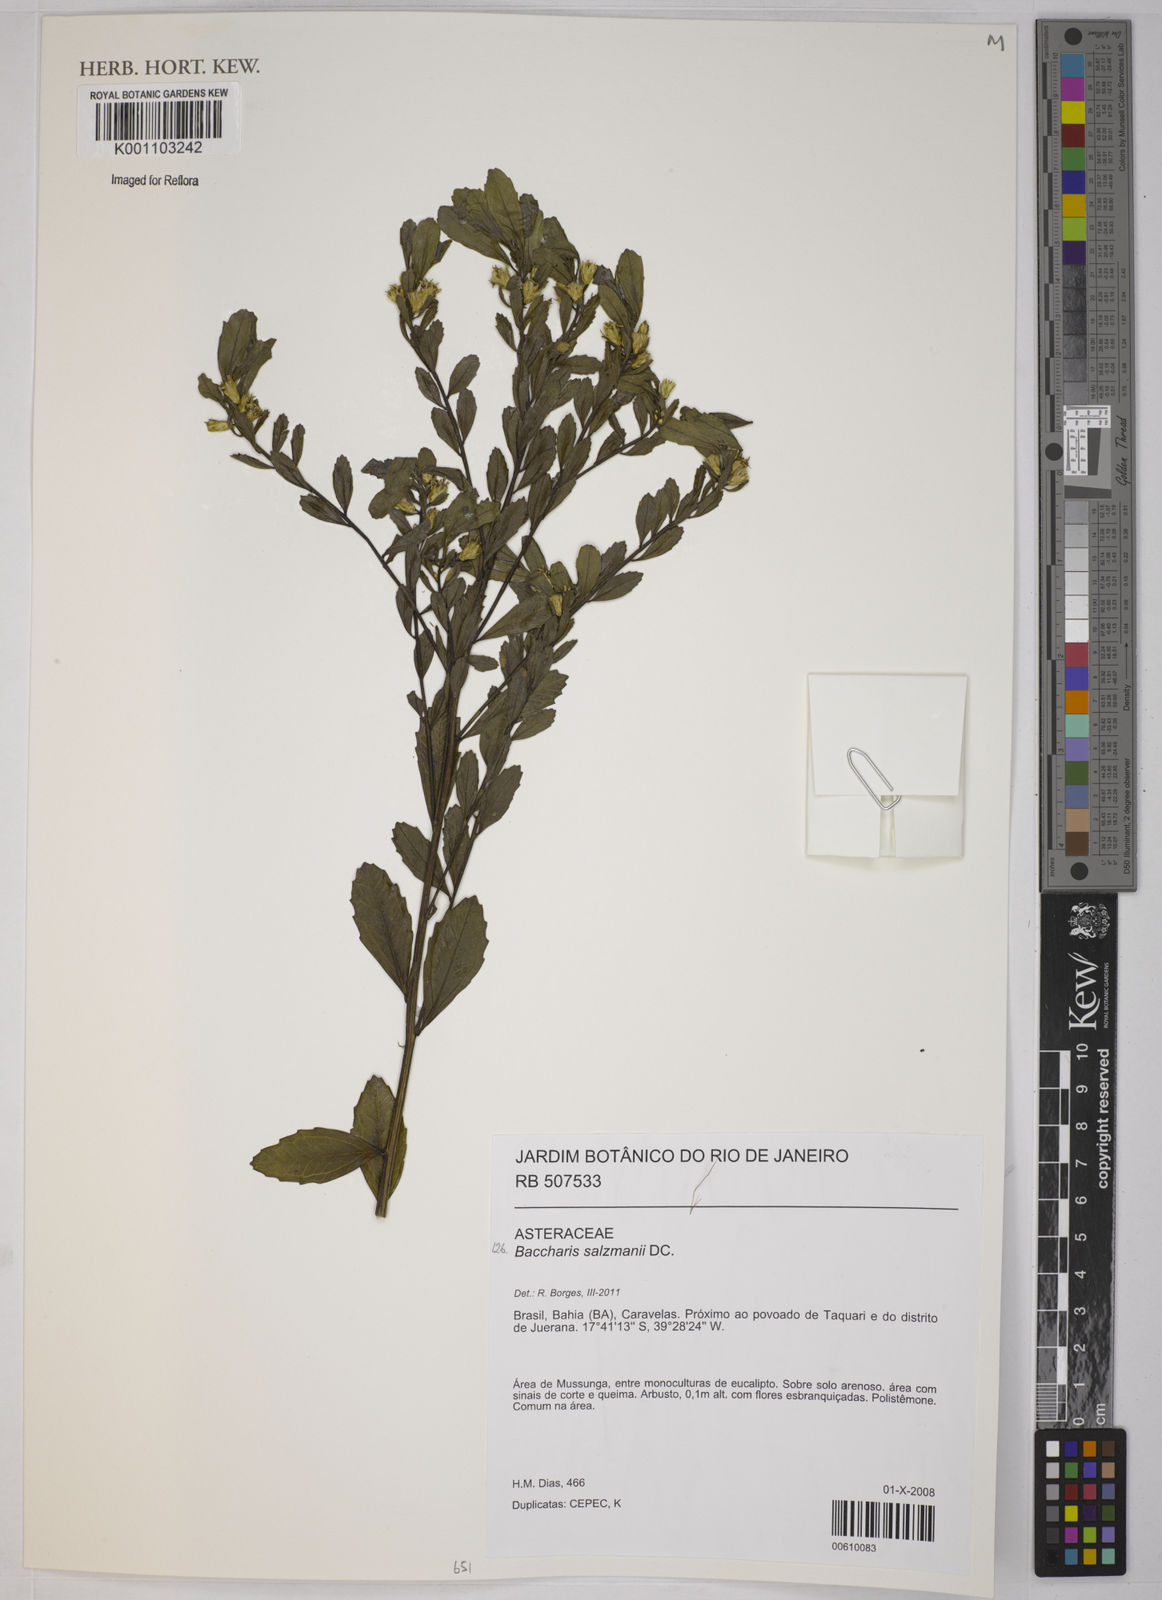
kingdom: Plantae
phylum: Tracheophyta
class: Magnoliopsida
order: Asterales
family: Asteraceae
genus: Baccharis
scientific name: Baccharis retusa
